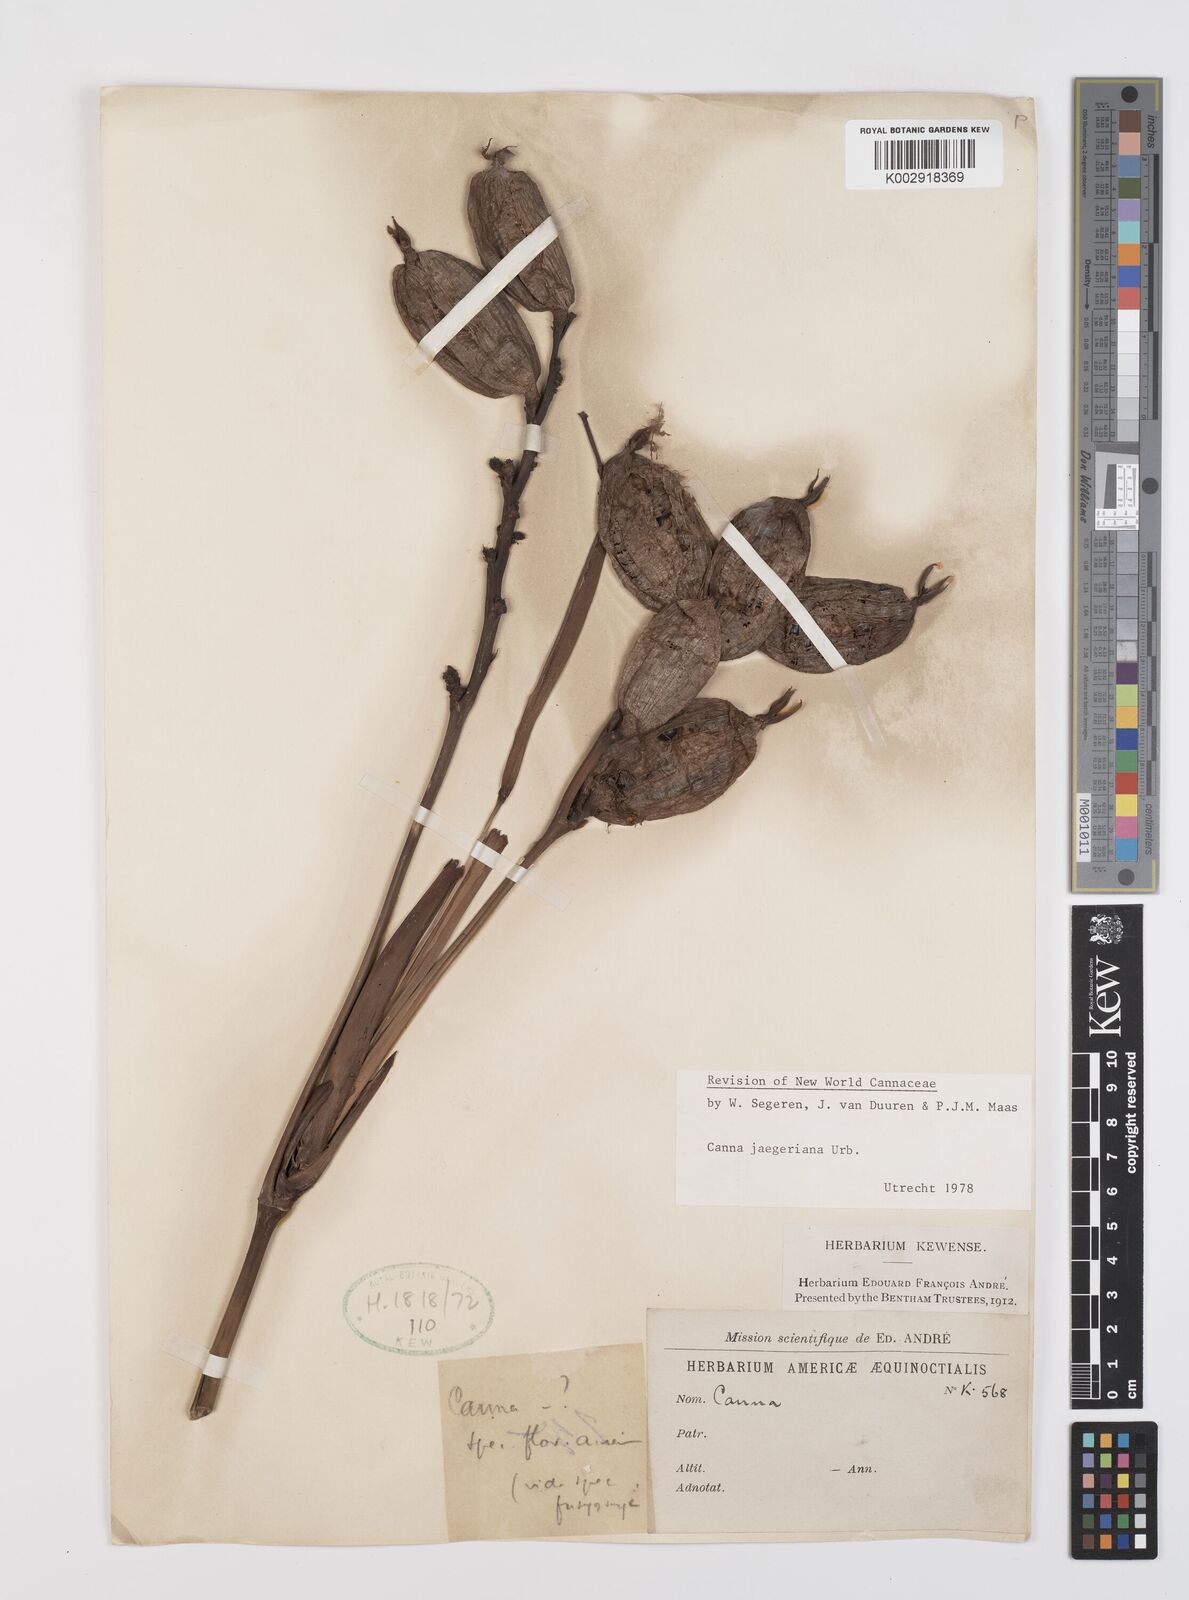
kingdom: Plantae
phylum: Tracheophyta
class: Liliopsida
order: Zingiberales
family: Cannaceae
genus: Canna
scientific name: Canna jaegeriana
